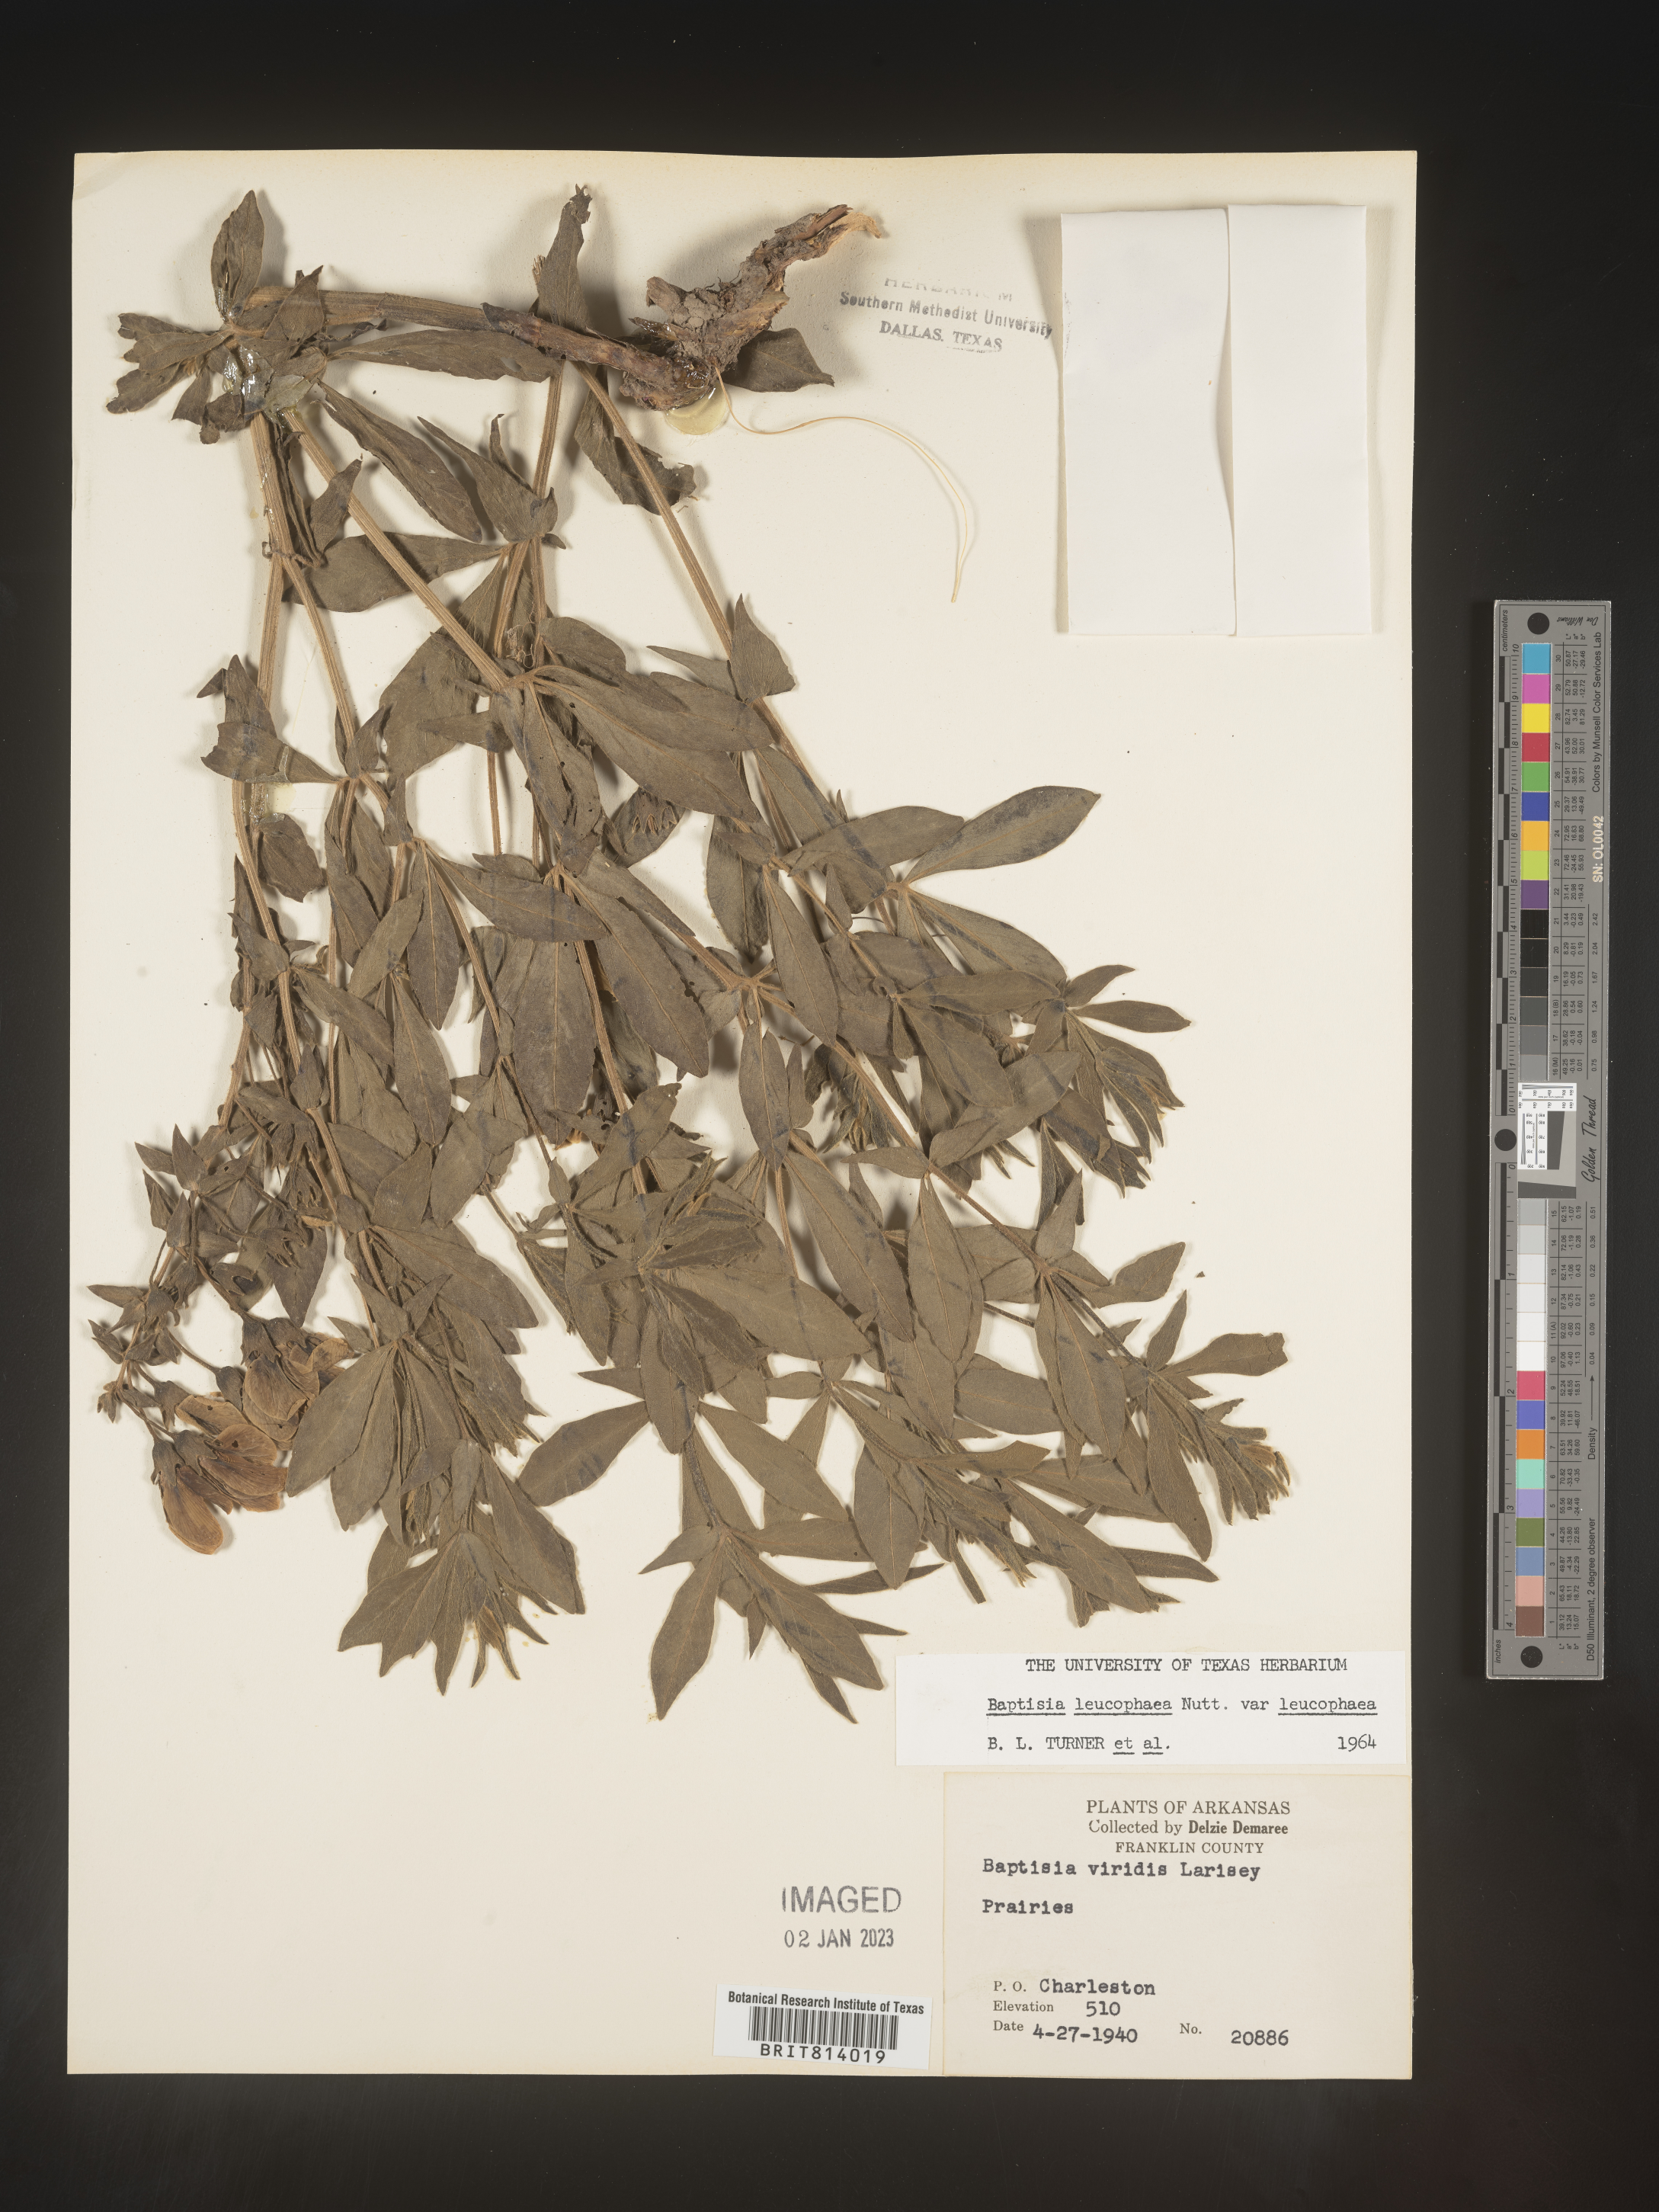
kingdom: Plantae
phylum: Tracheophyta
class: Magnoliopsida
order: Fabales
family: Fabaceae
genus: Baptisia
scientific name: Baptisia bracteata
